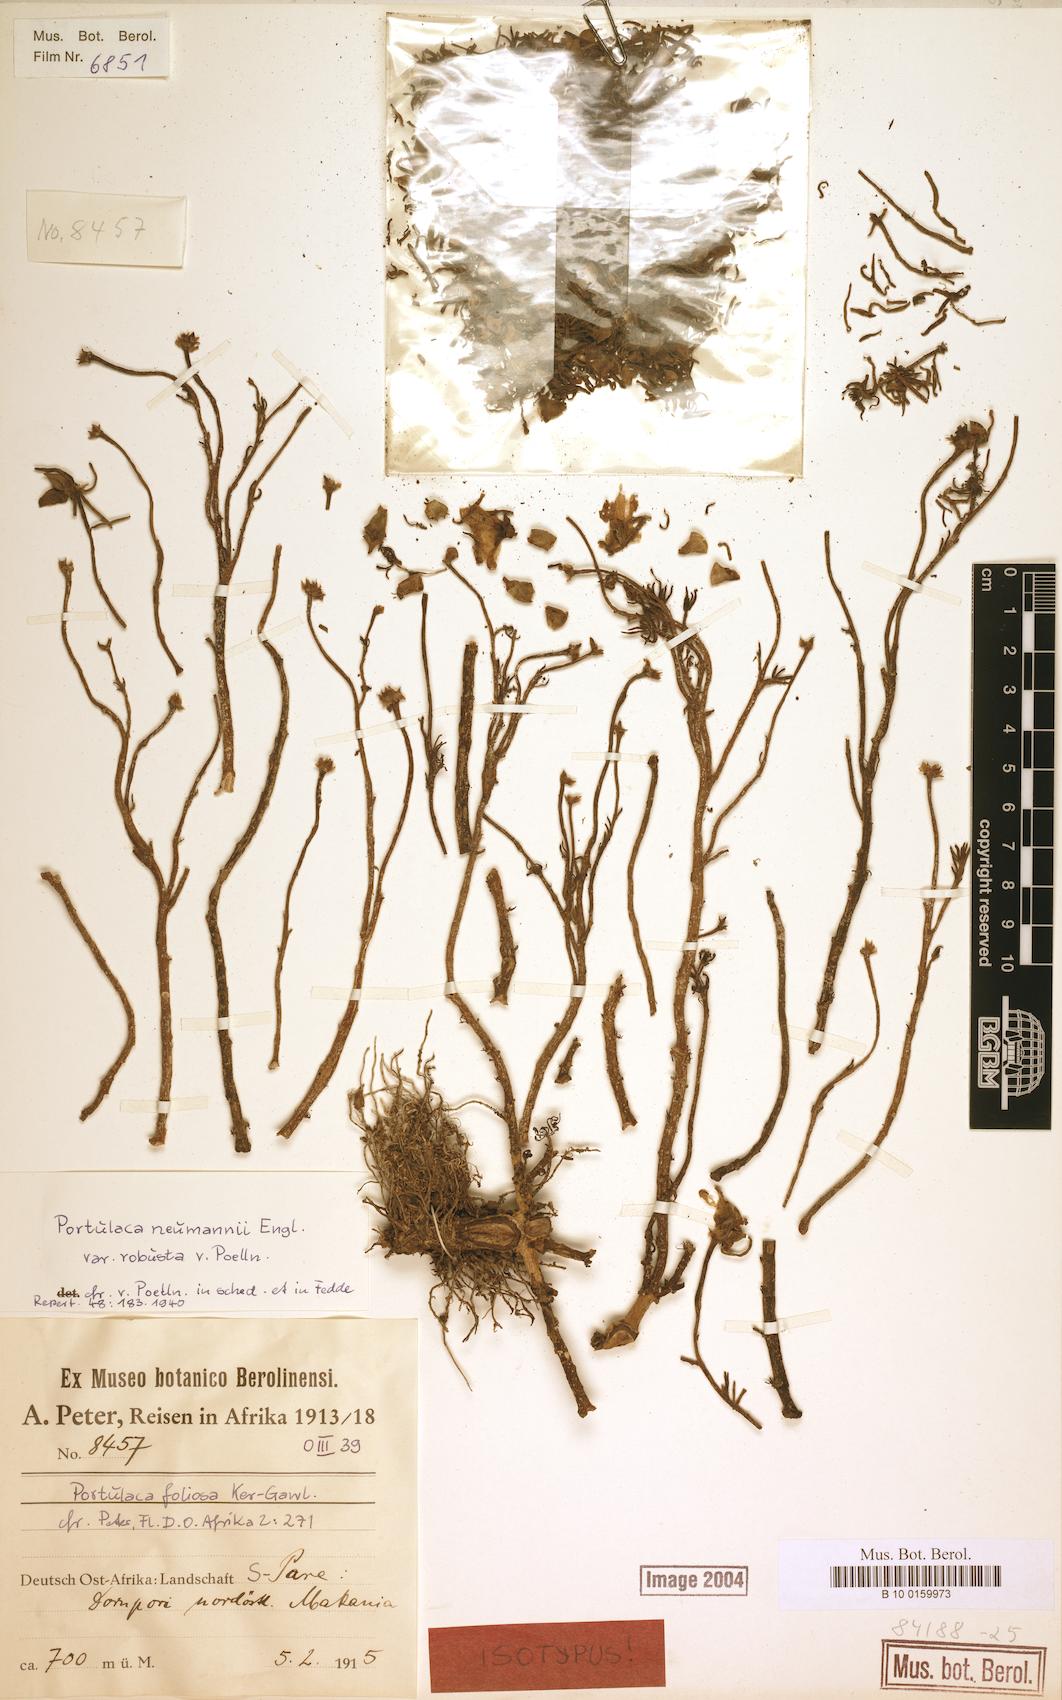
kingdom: Plantae
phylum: Tracheophyta
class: Magnoliopsida
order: Caryophyllales
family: Portulacaceae
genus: Portulaca
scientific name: Portulaca oblonga
